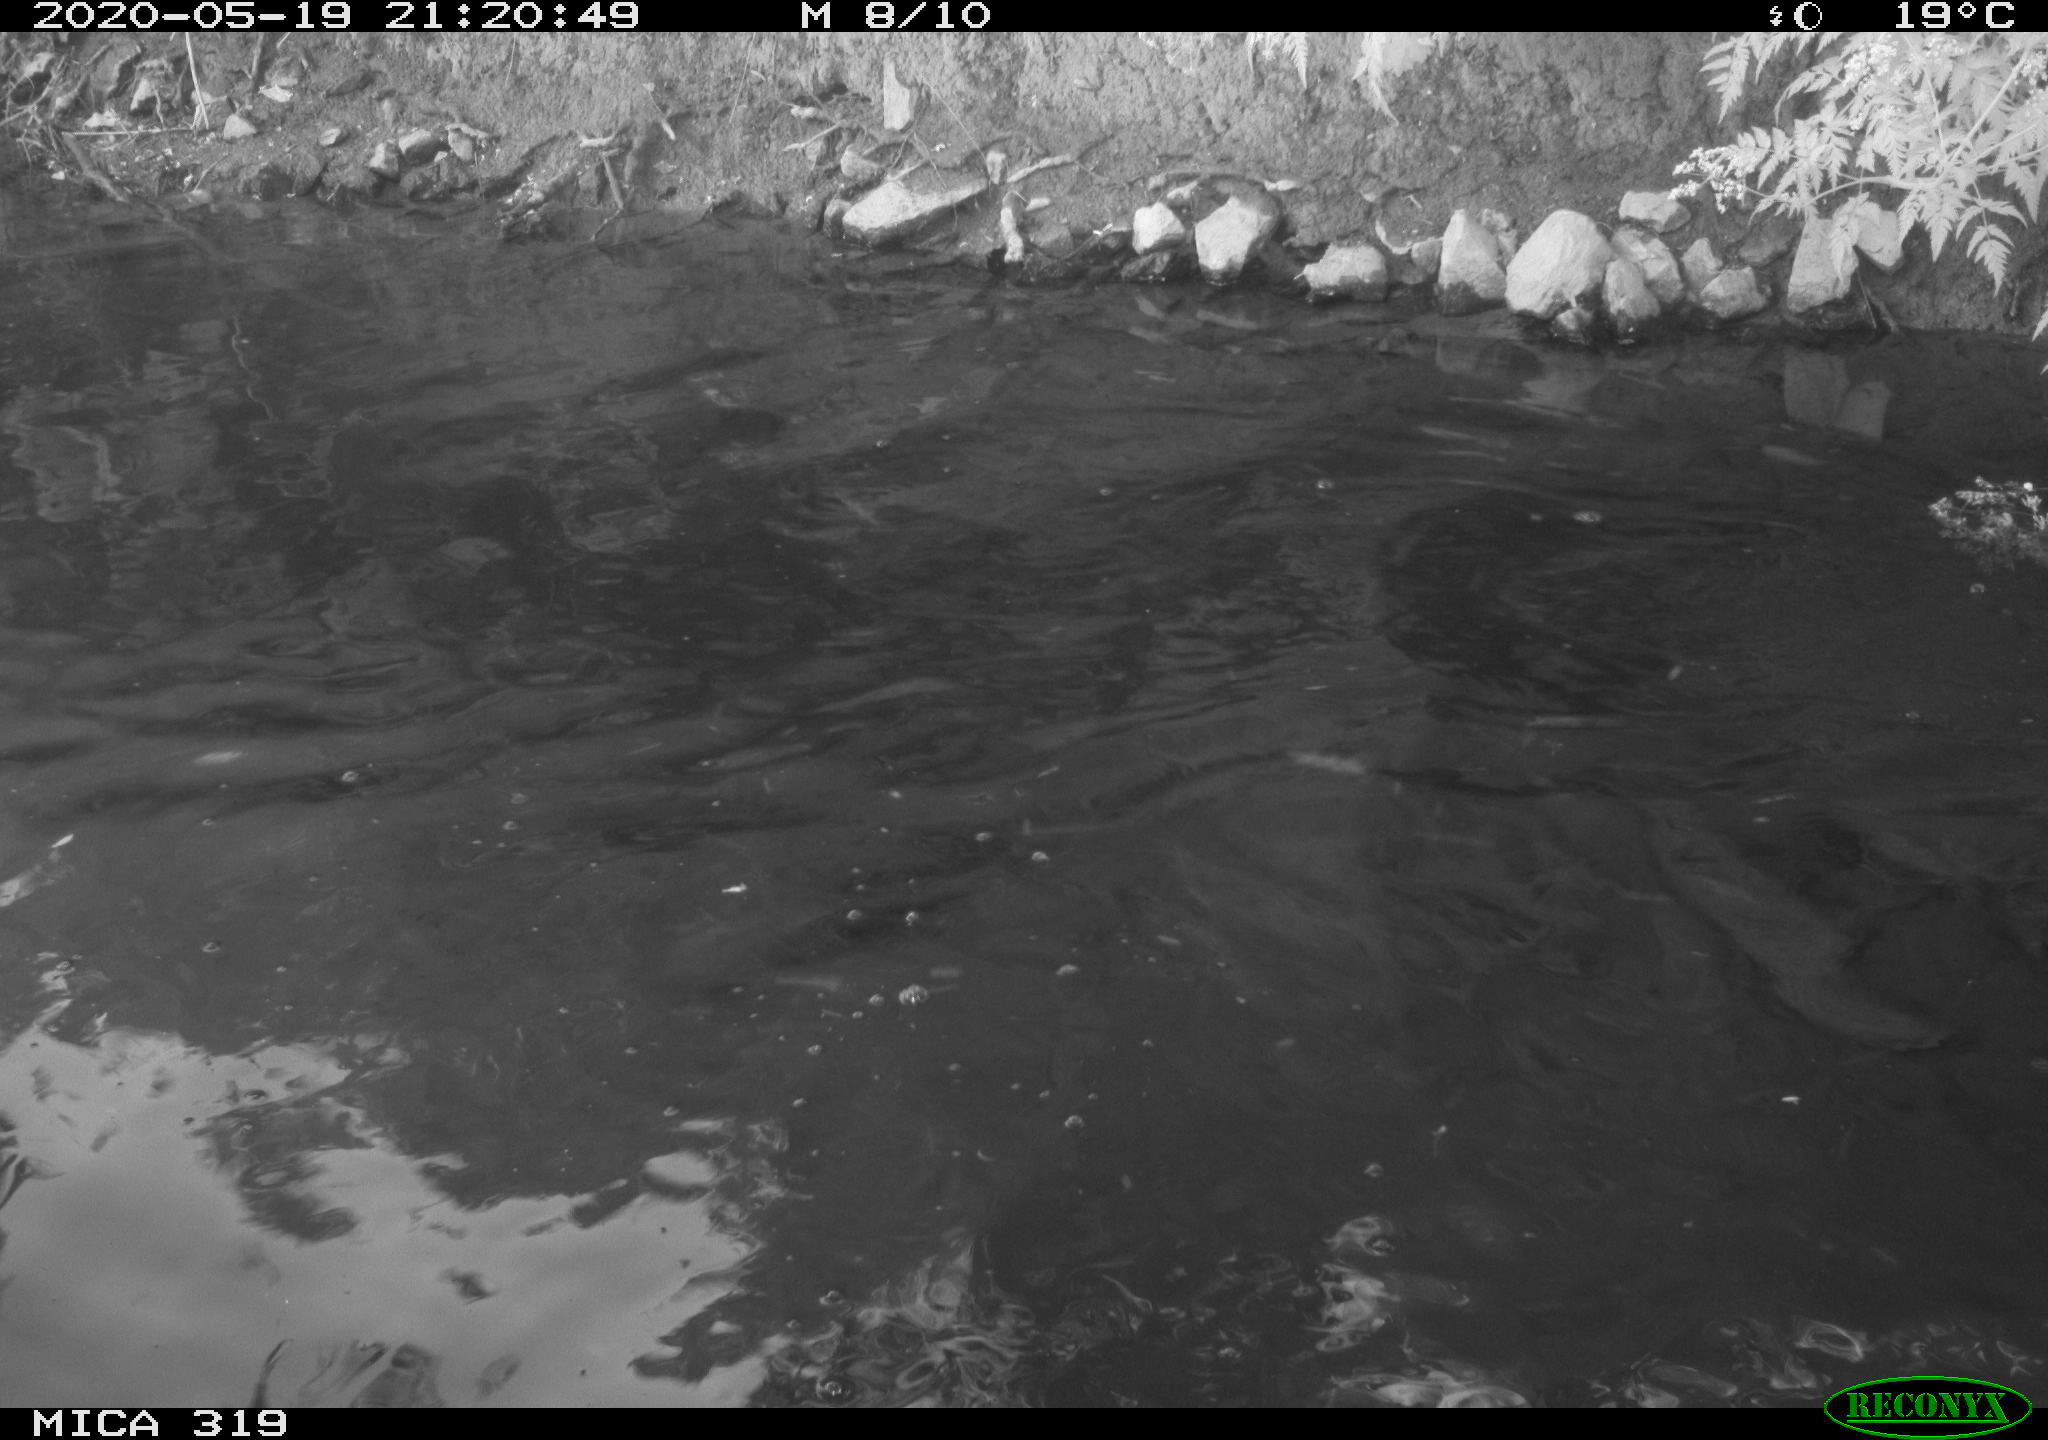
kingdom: Animalia
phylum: Chordata
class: Aves
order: Anseriformes
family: Anatidae
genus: Anas
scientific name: Anas platyrhynchos
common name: Mallard
